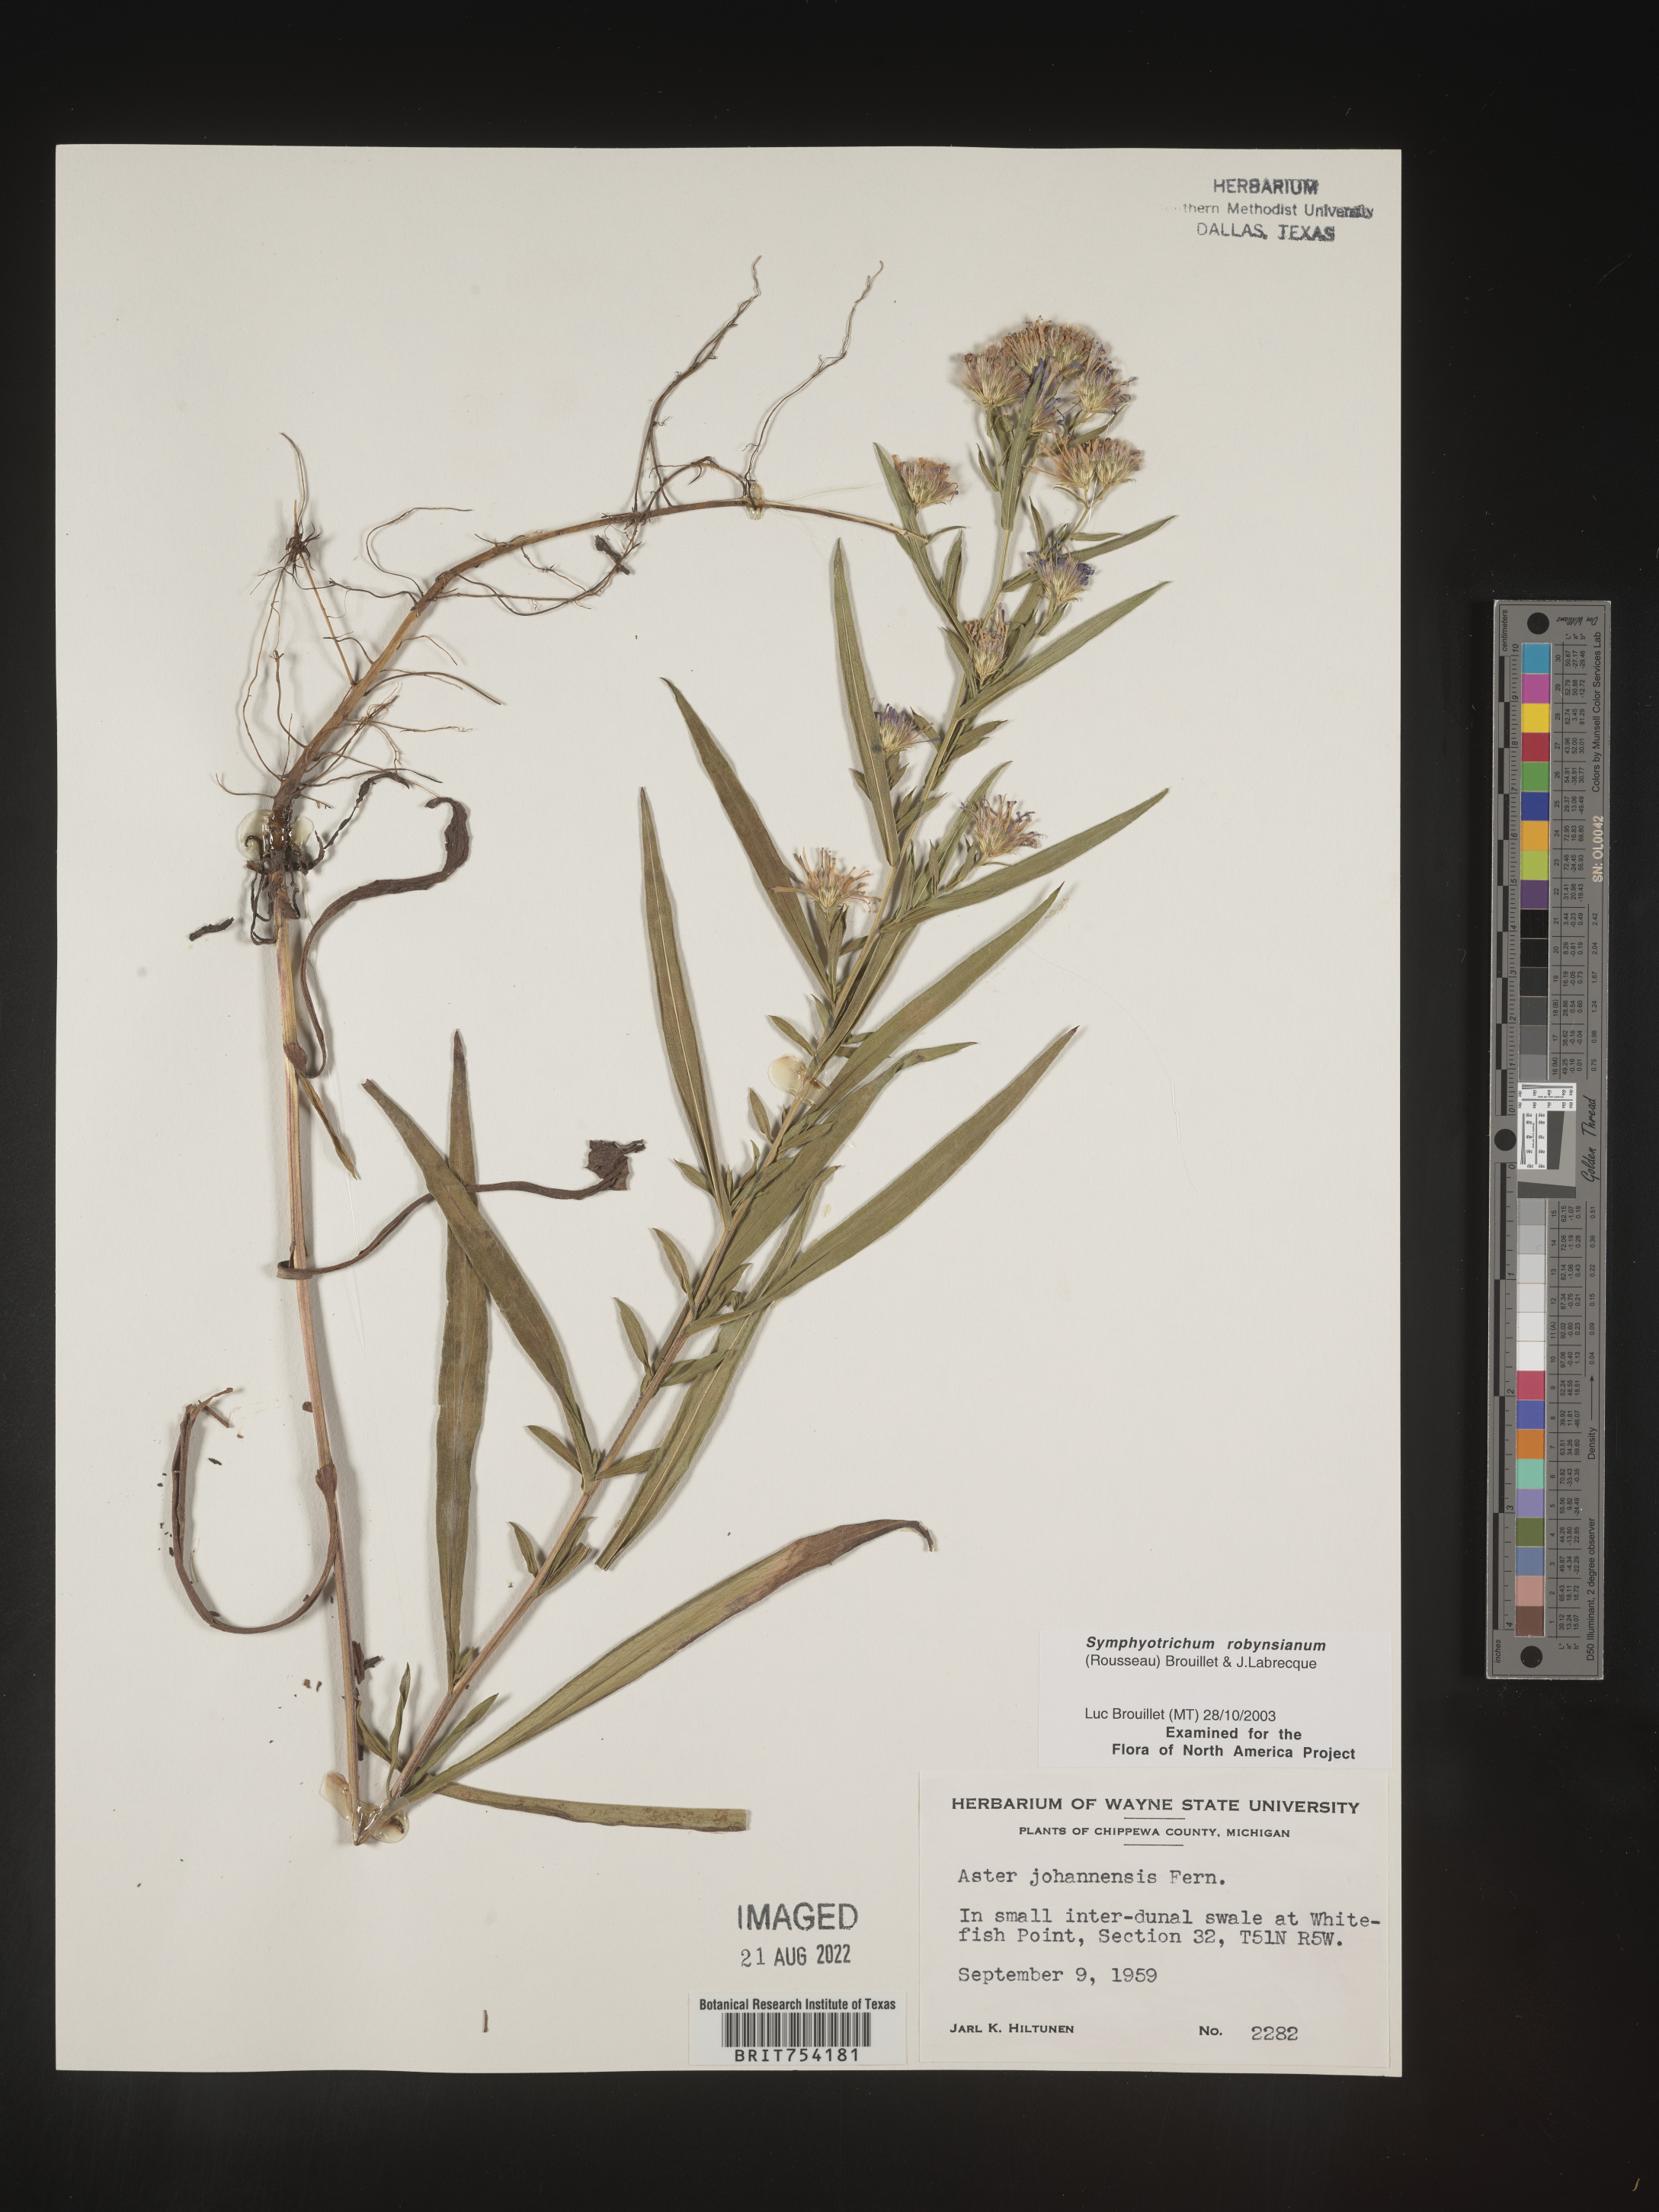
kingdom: Plantae
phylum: Tracheophyta
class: Magnoliopsida
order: Asterales
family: Asteraceae
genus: Symphyotrichum
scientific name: Symphyotrichum robynsianum
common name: Robyns' aster
